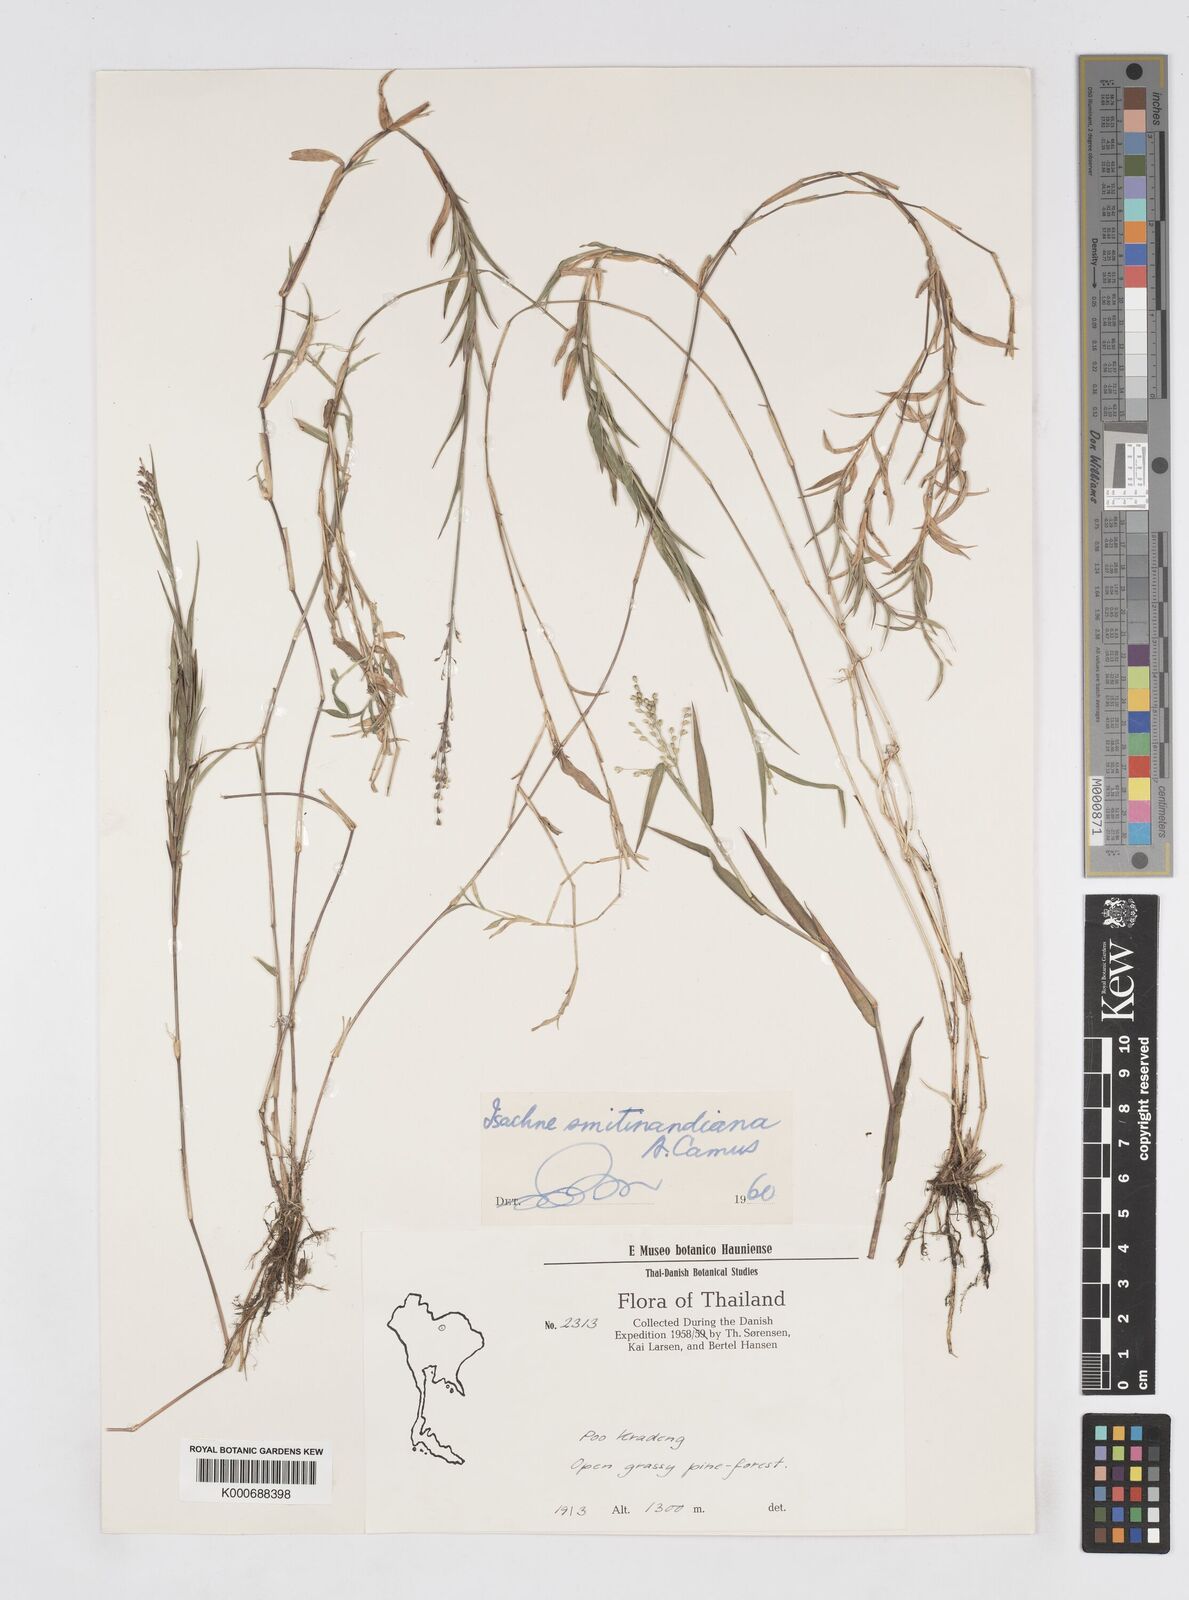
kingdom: Plantae
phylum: Tracheophyta
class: Liliopsida
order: Poales
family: Poaceae
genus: Isachne
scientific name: Isachne smitinandiana
